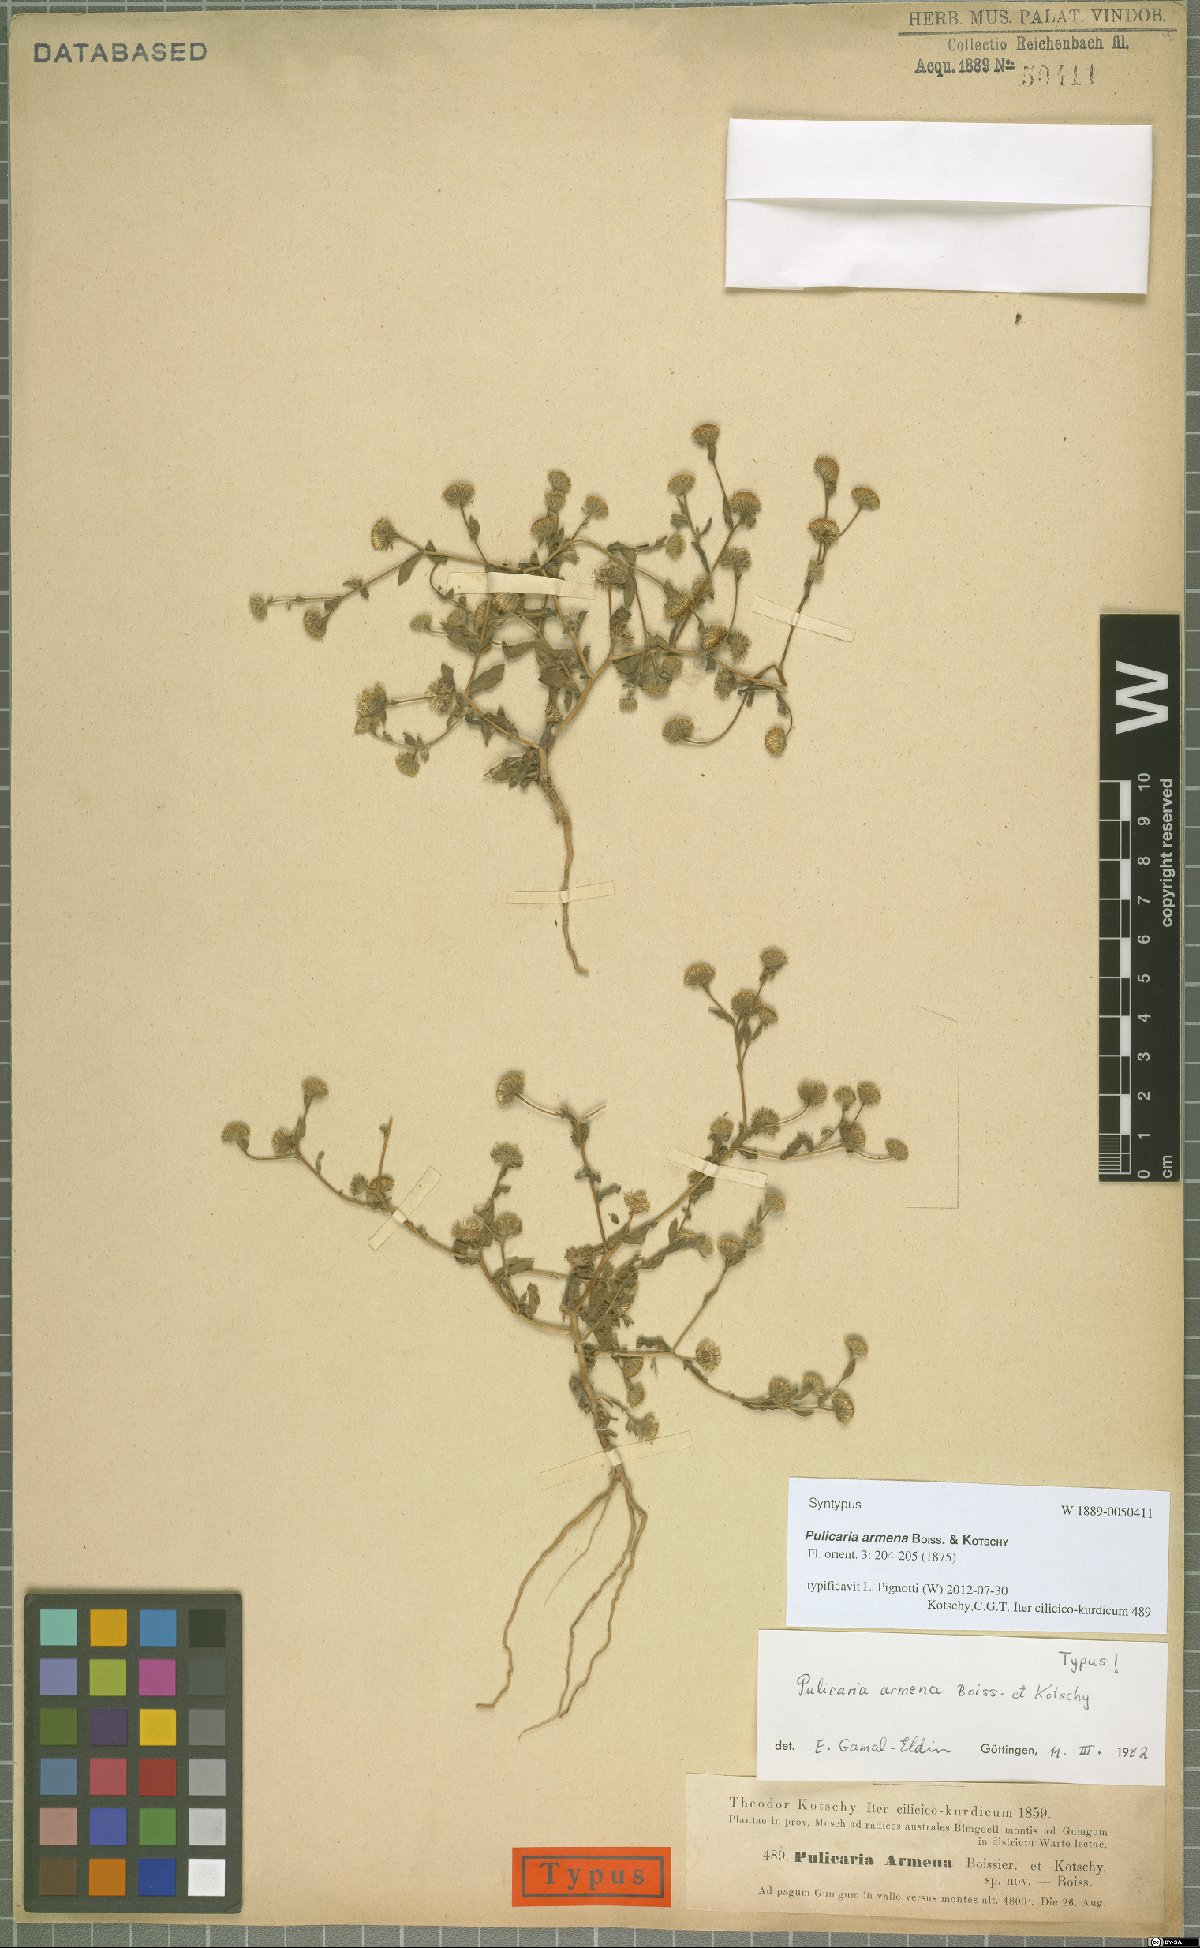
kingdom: Plantae
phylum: Tracheophyta
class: Magnoliopsida
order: Asterales
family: Asteraceae
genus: Pulicaria
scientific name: Pulicaria armena
